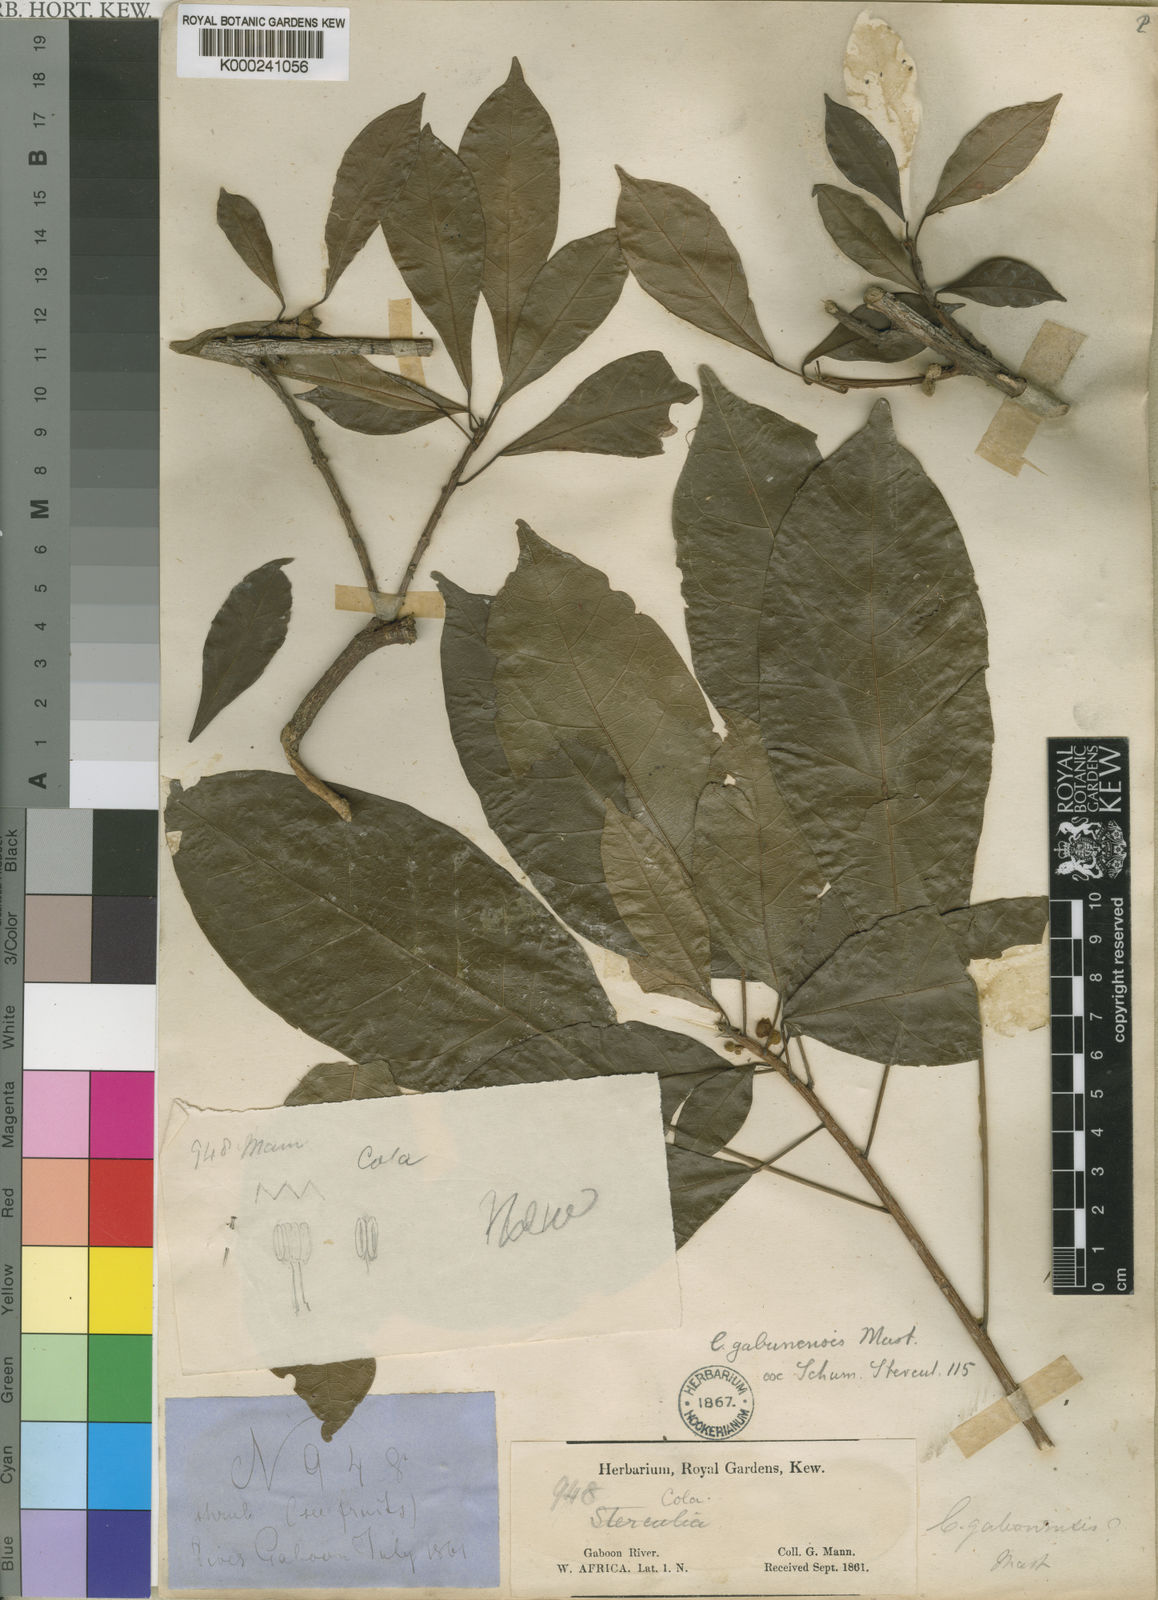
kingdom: Plantae
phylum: Tracheophyta
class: Magnoliopsida
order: Malvales
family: Malvaceae
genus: Cola
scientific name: Cola gabonensis
